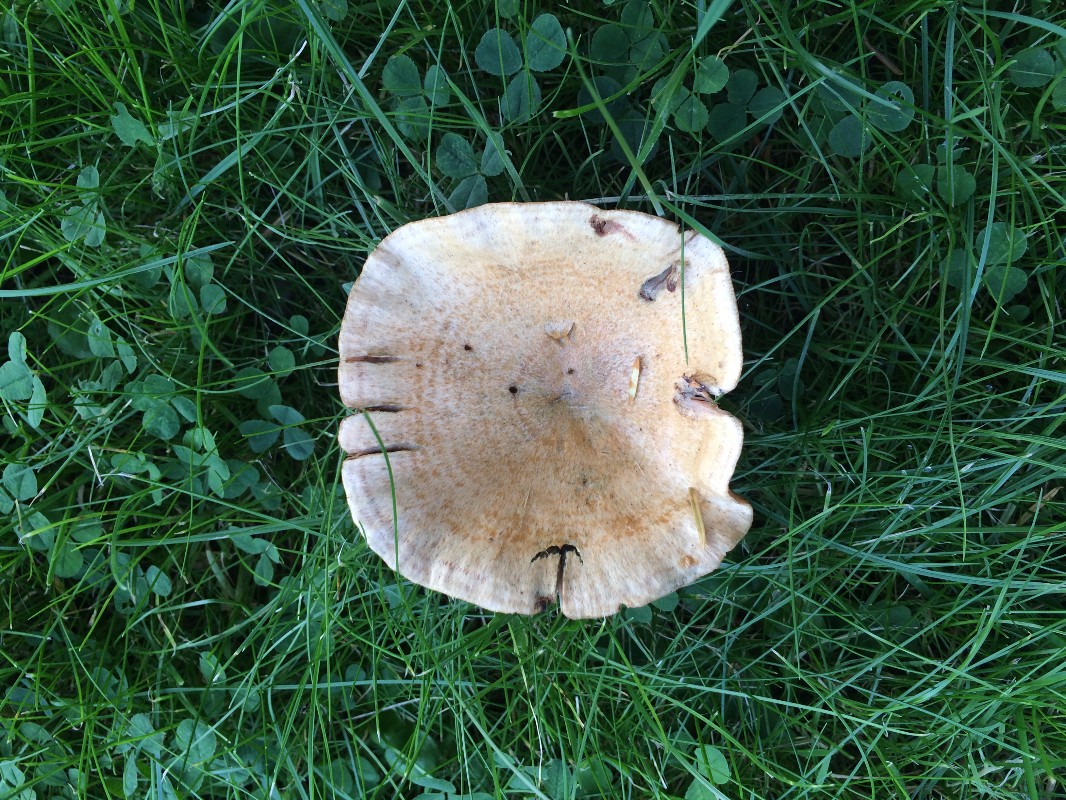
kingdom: Fungi
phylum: Basidiomycota
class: Agaricomycetes
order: Russulales
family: Russulaceae
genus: Lactarius
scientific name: Lactarius deterrimus
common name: gran-mælkehat
